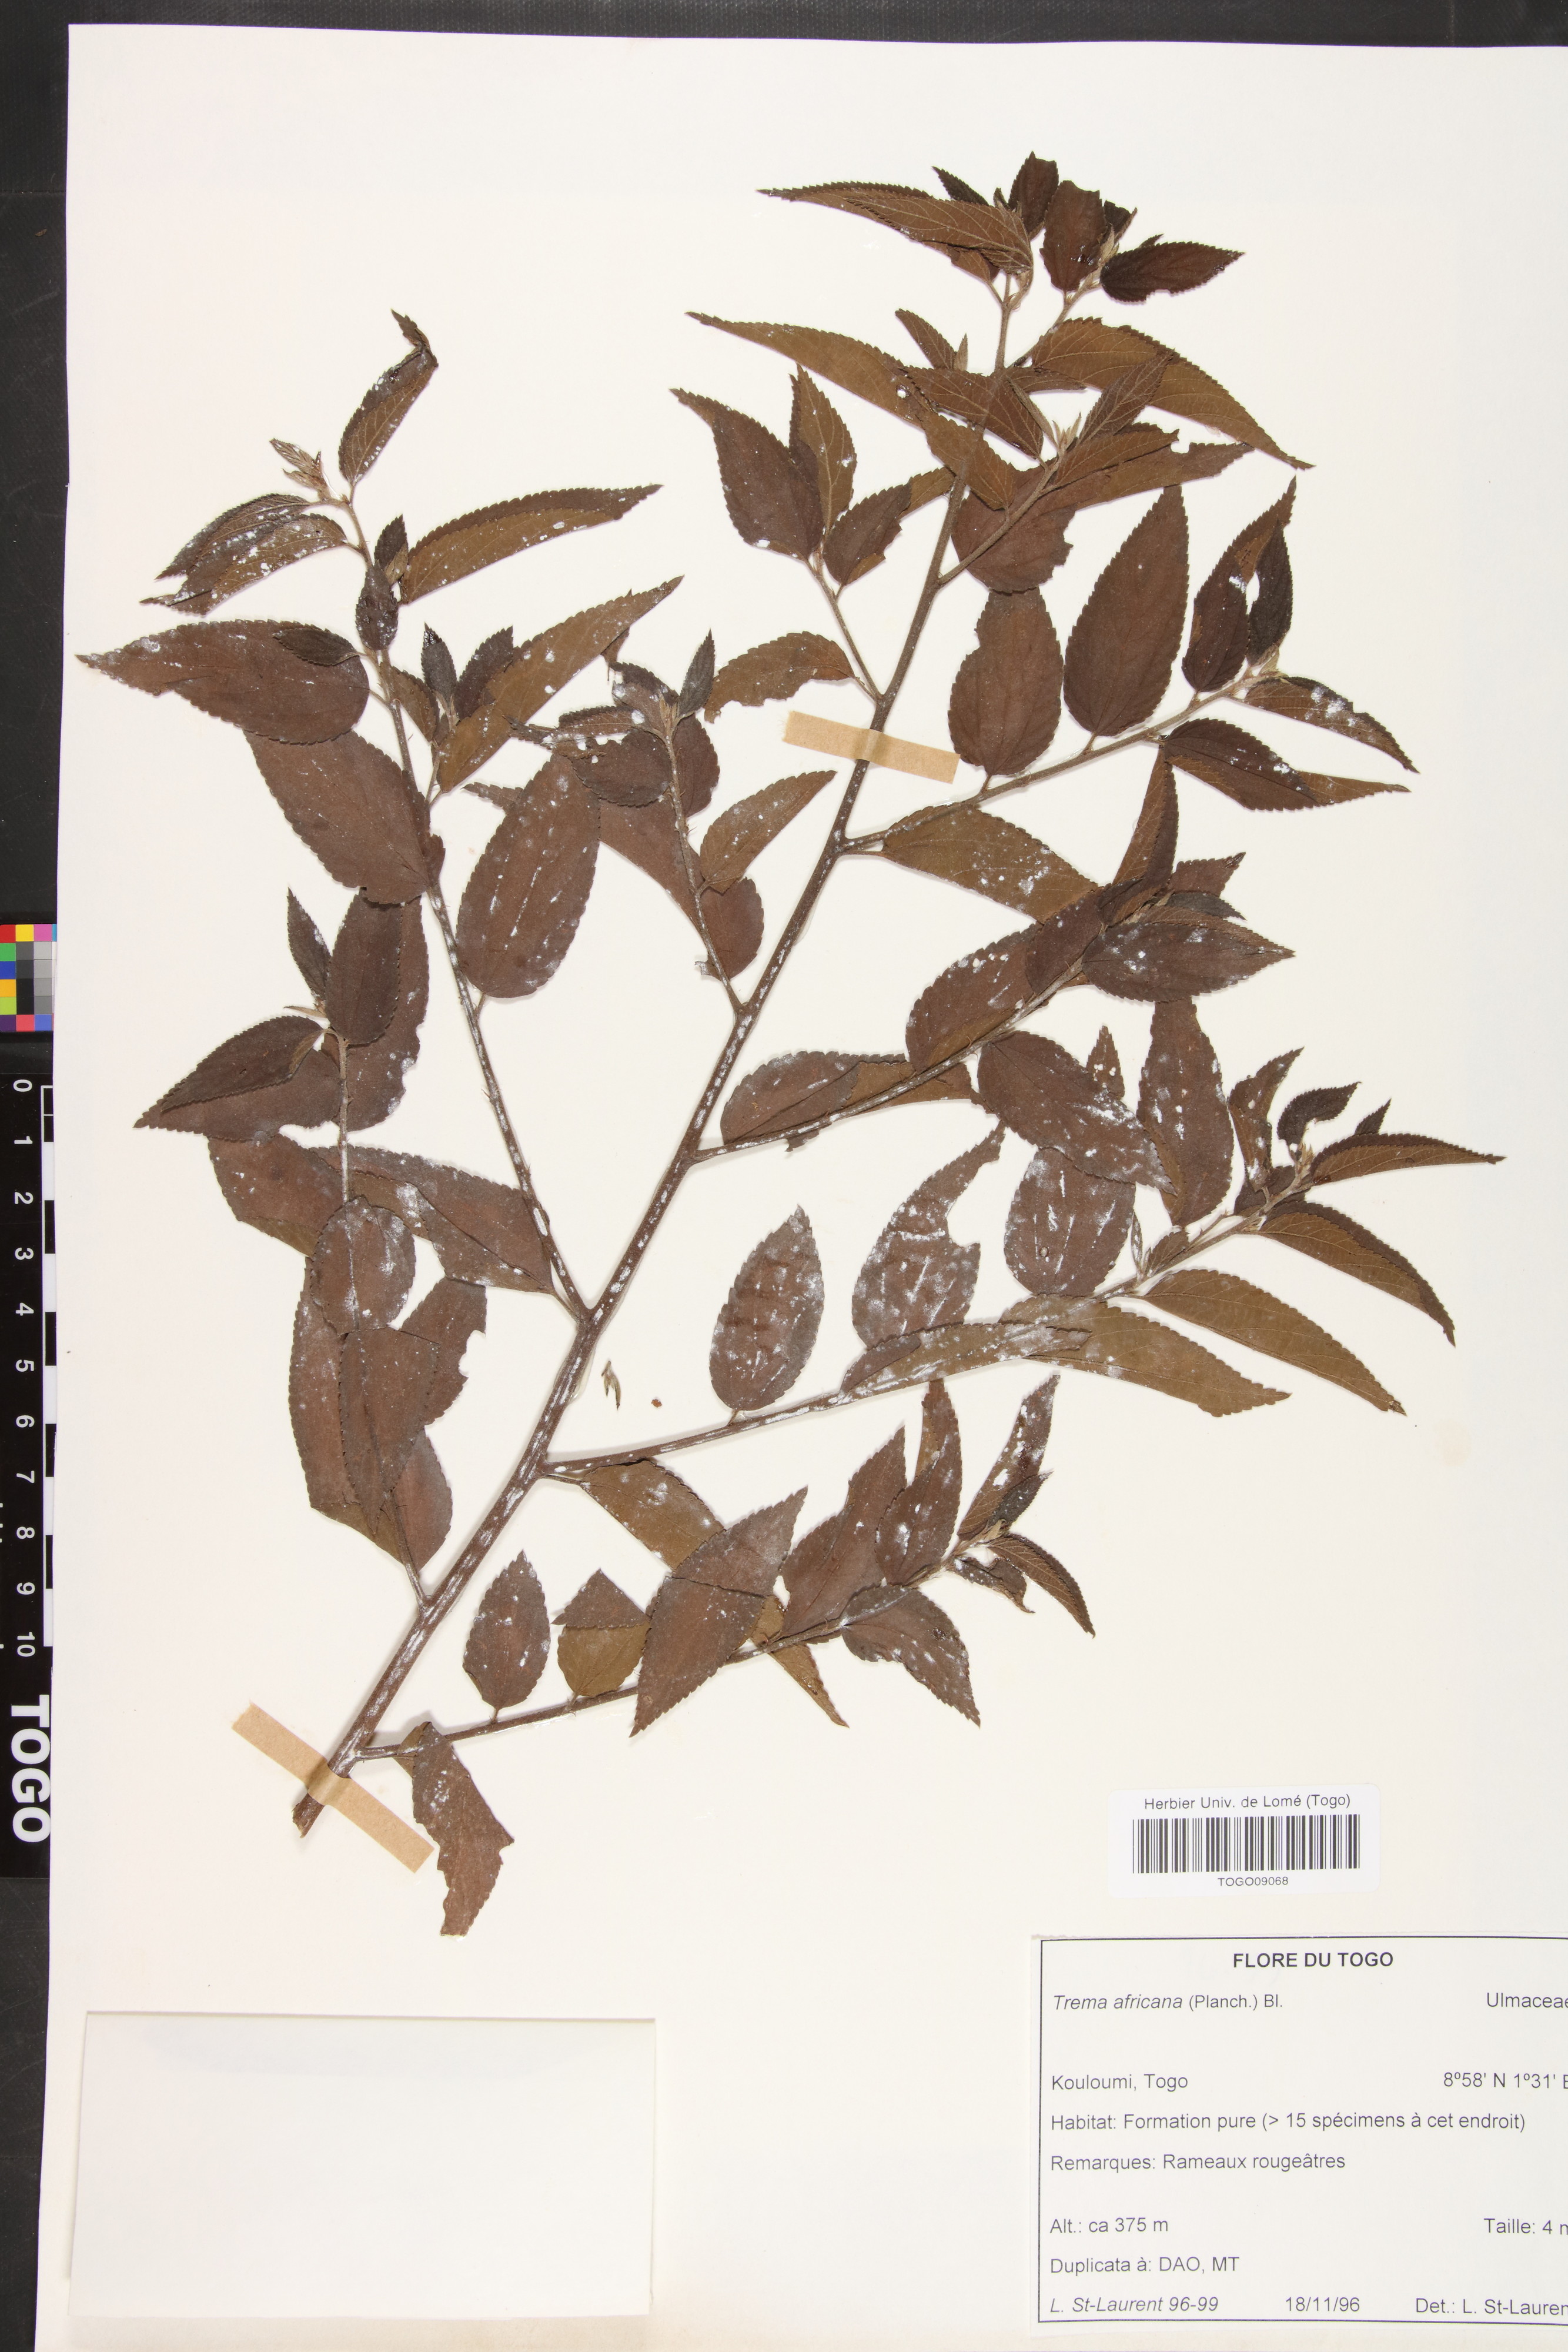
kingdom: Plantae
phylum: Tracheophyta
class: Magnoliopsida
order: Rosales
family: Cannabaceae
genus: Trema
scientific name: Trema orientale
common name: Indian charcoal tree
